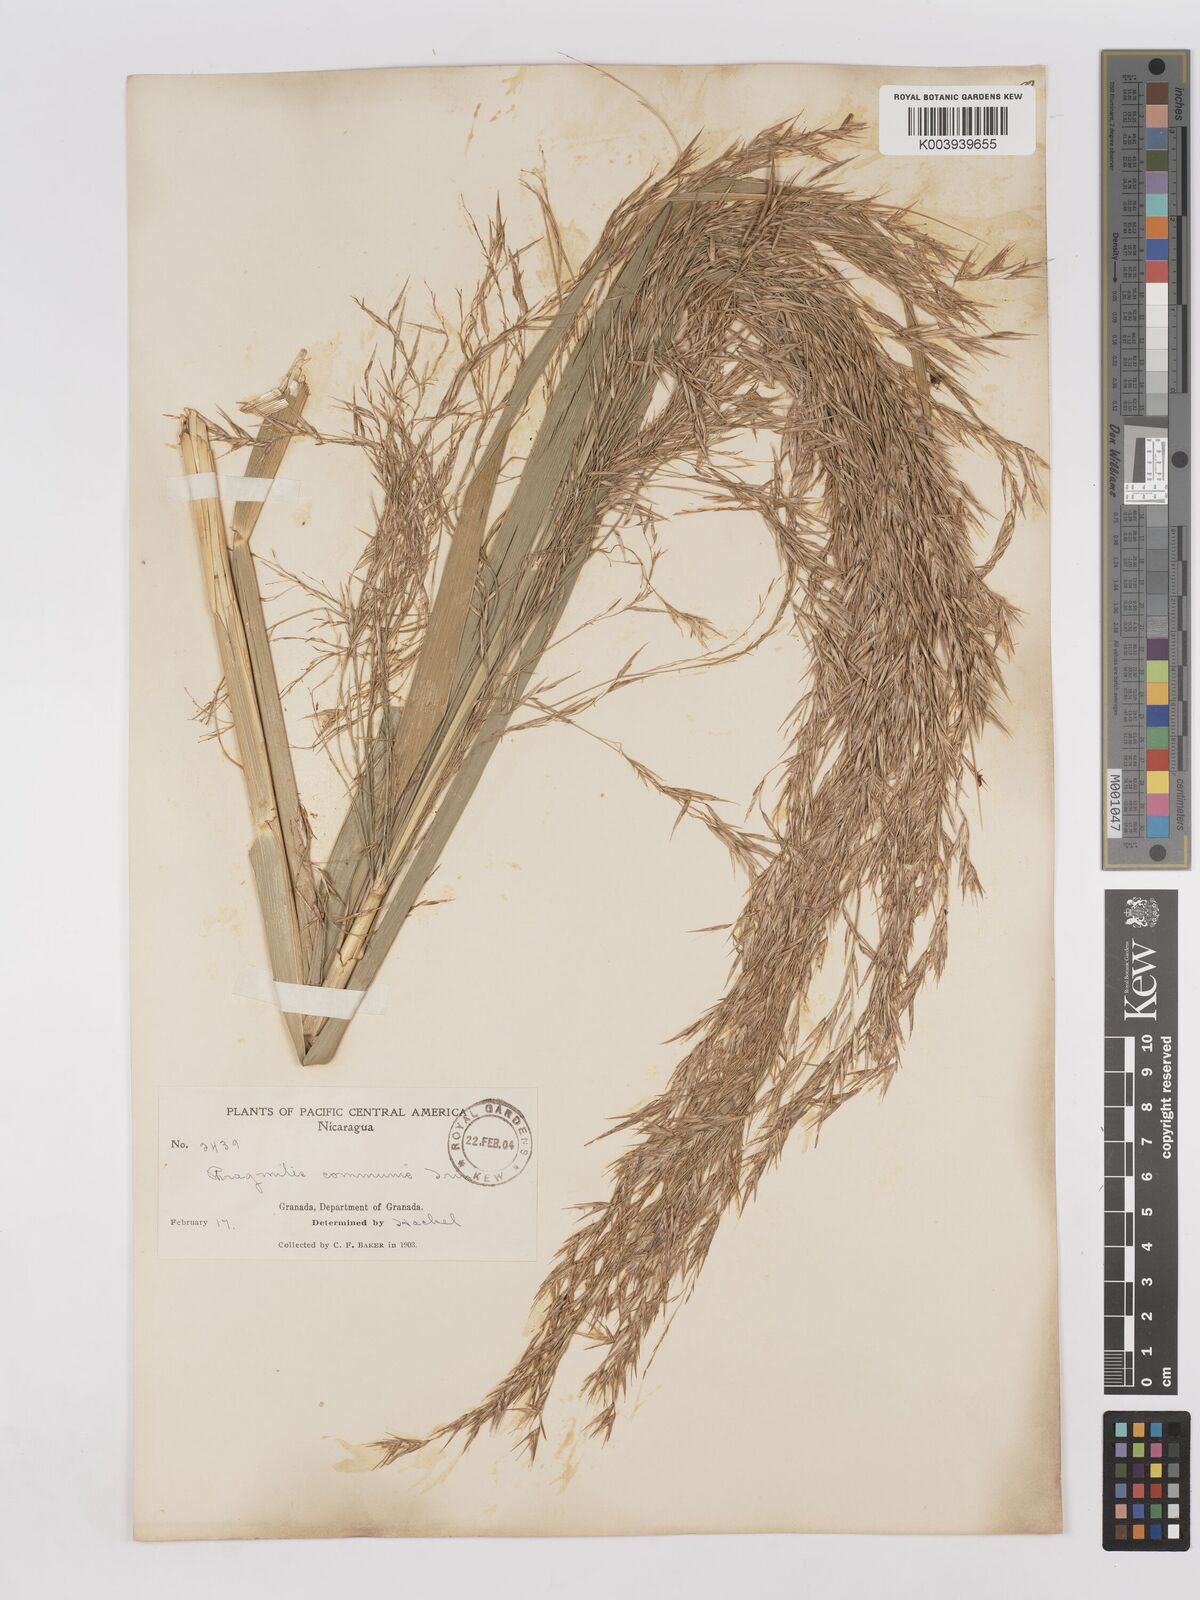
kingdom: Plantae
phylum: Tracheophyta
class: Liliopsida
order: Poales
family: Poaceae
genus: Phragmites
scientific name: Phragmites australis
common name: Common reed
